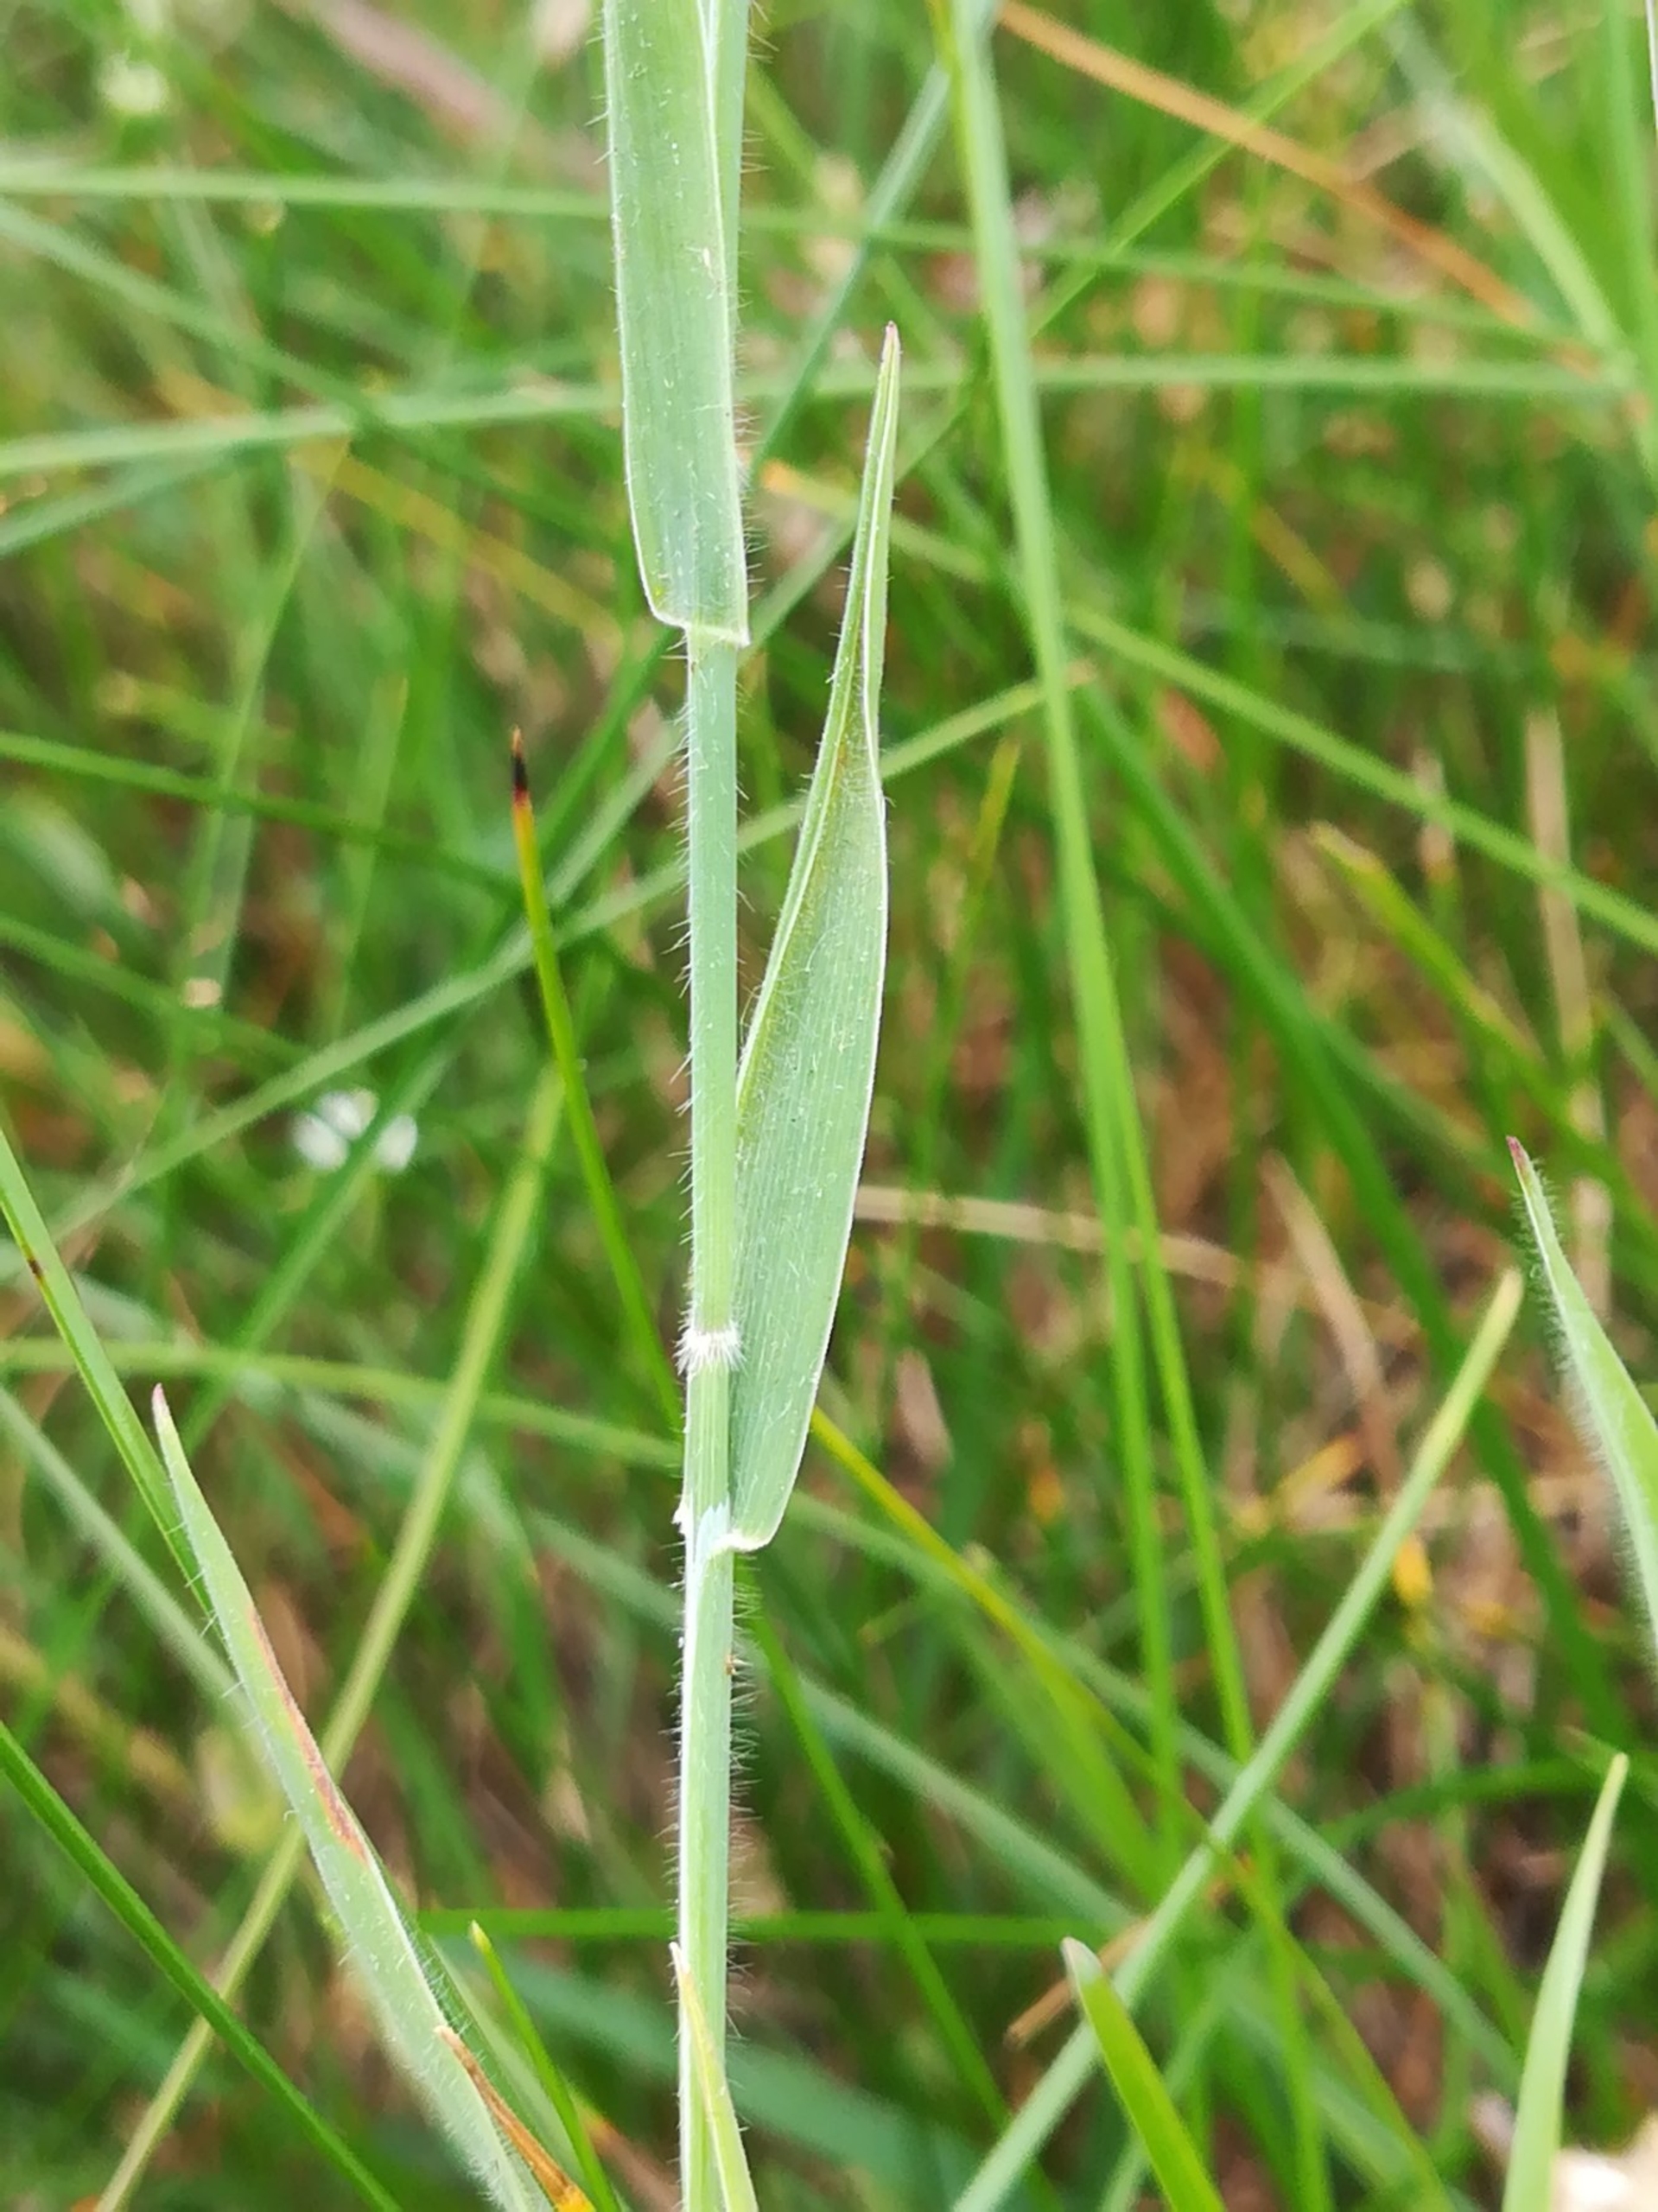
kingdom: Plantae
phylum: Tracheophyta
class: Liliopsida
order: Poales
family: Poaceae
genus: Holcus
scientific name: Holcus mollis
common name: Krybende hestegræs
